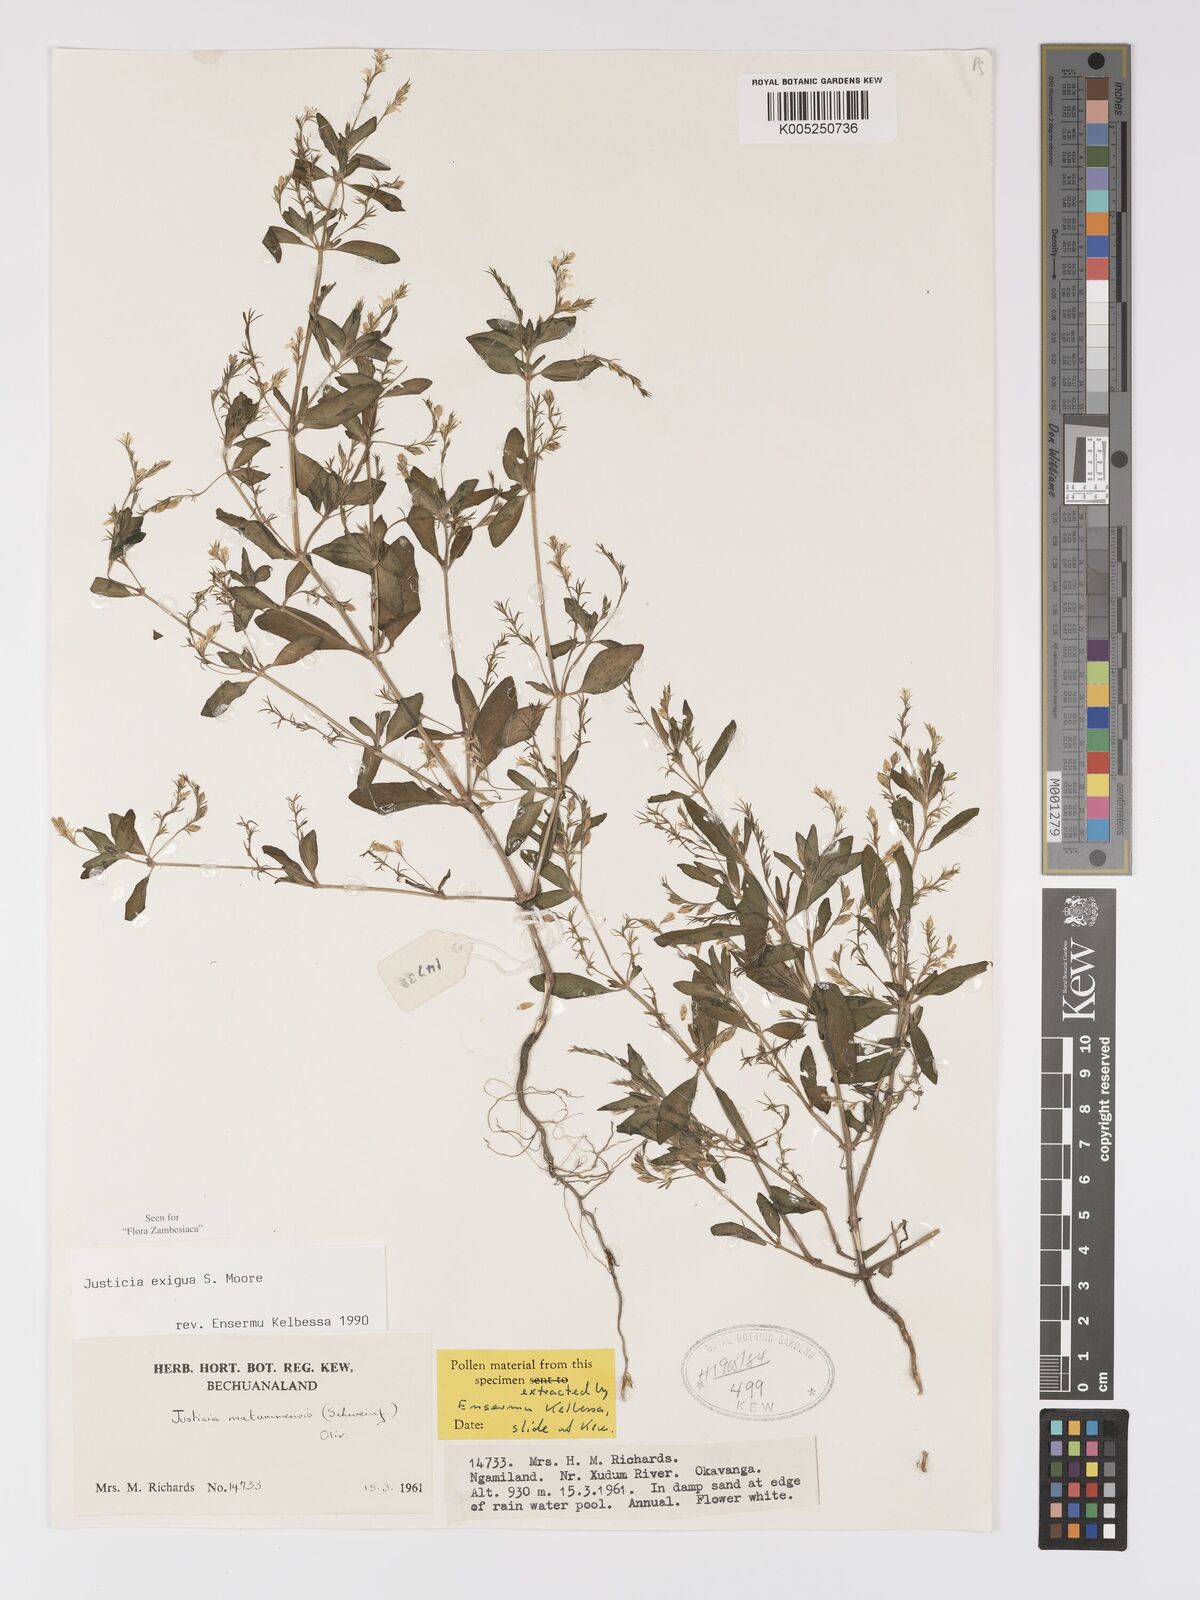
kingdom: Plantae
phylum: Tracheophyta
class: Magnoliopsida
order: Lamiales
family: Acanthaceae
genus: Justicia
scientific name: Justicia exigua
